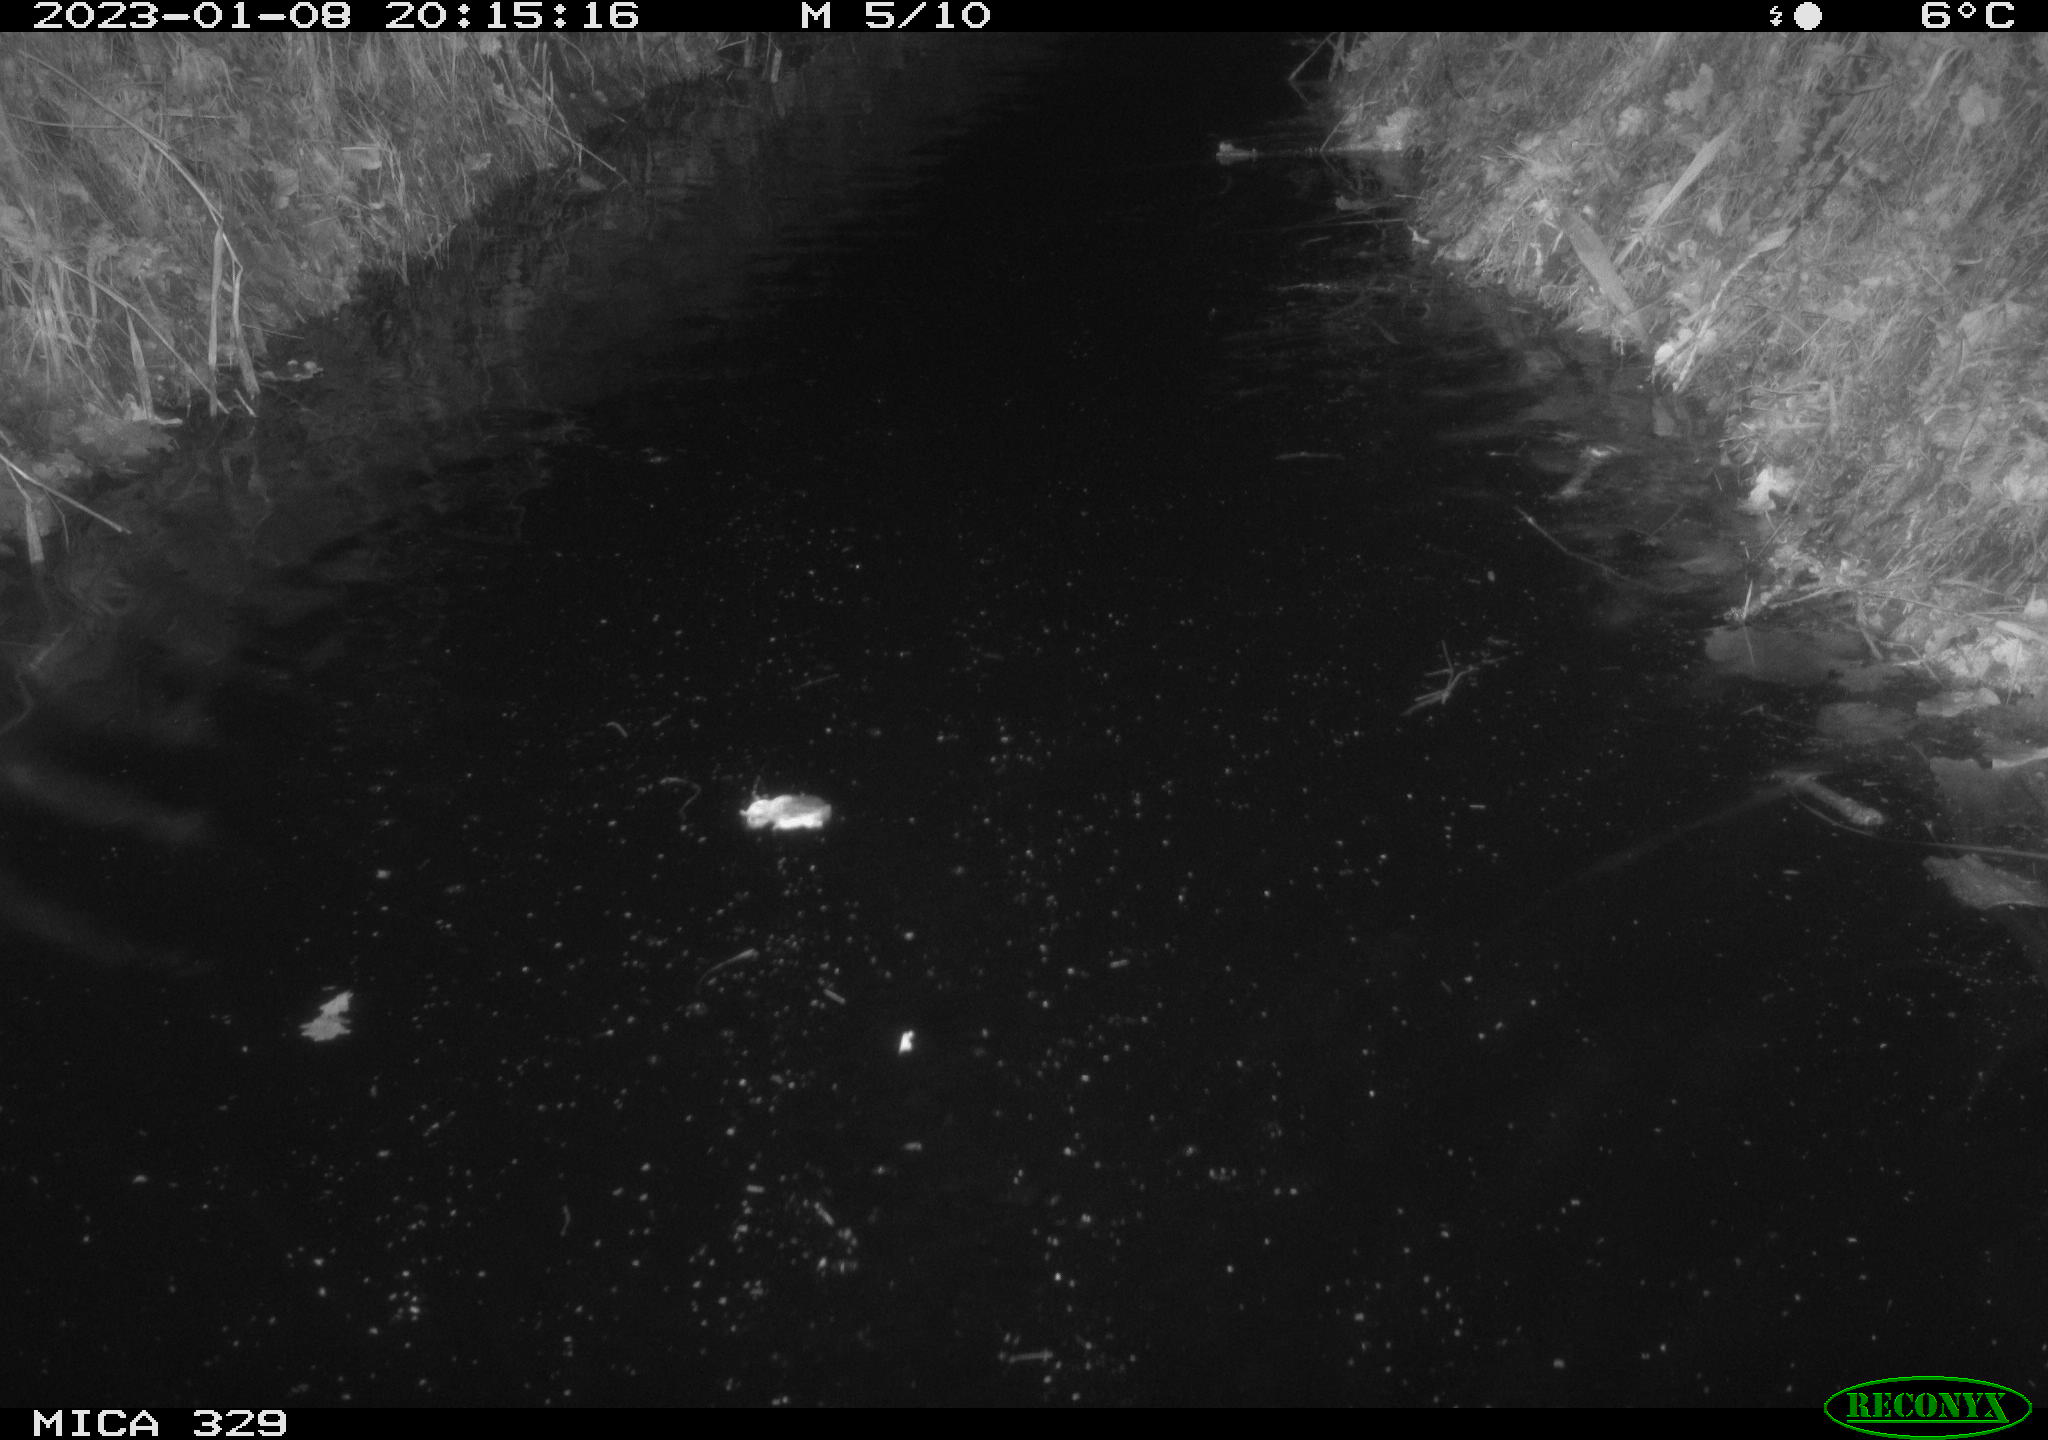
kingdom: Animalia
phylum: Chordata
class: Mammalia
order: Rodentia
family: Cricetidae
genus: Ondatra
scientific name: Ondatra zibethicus
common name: Muskrat
